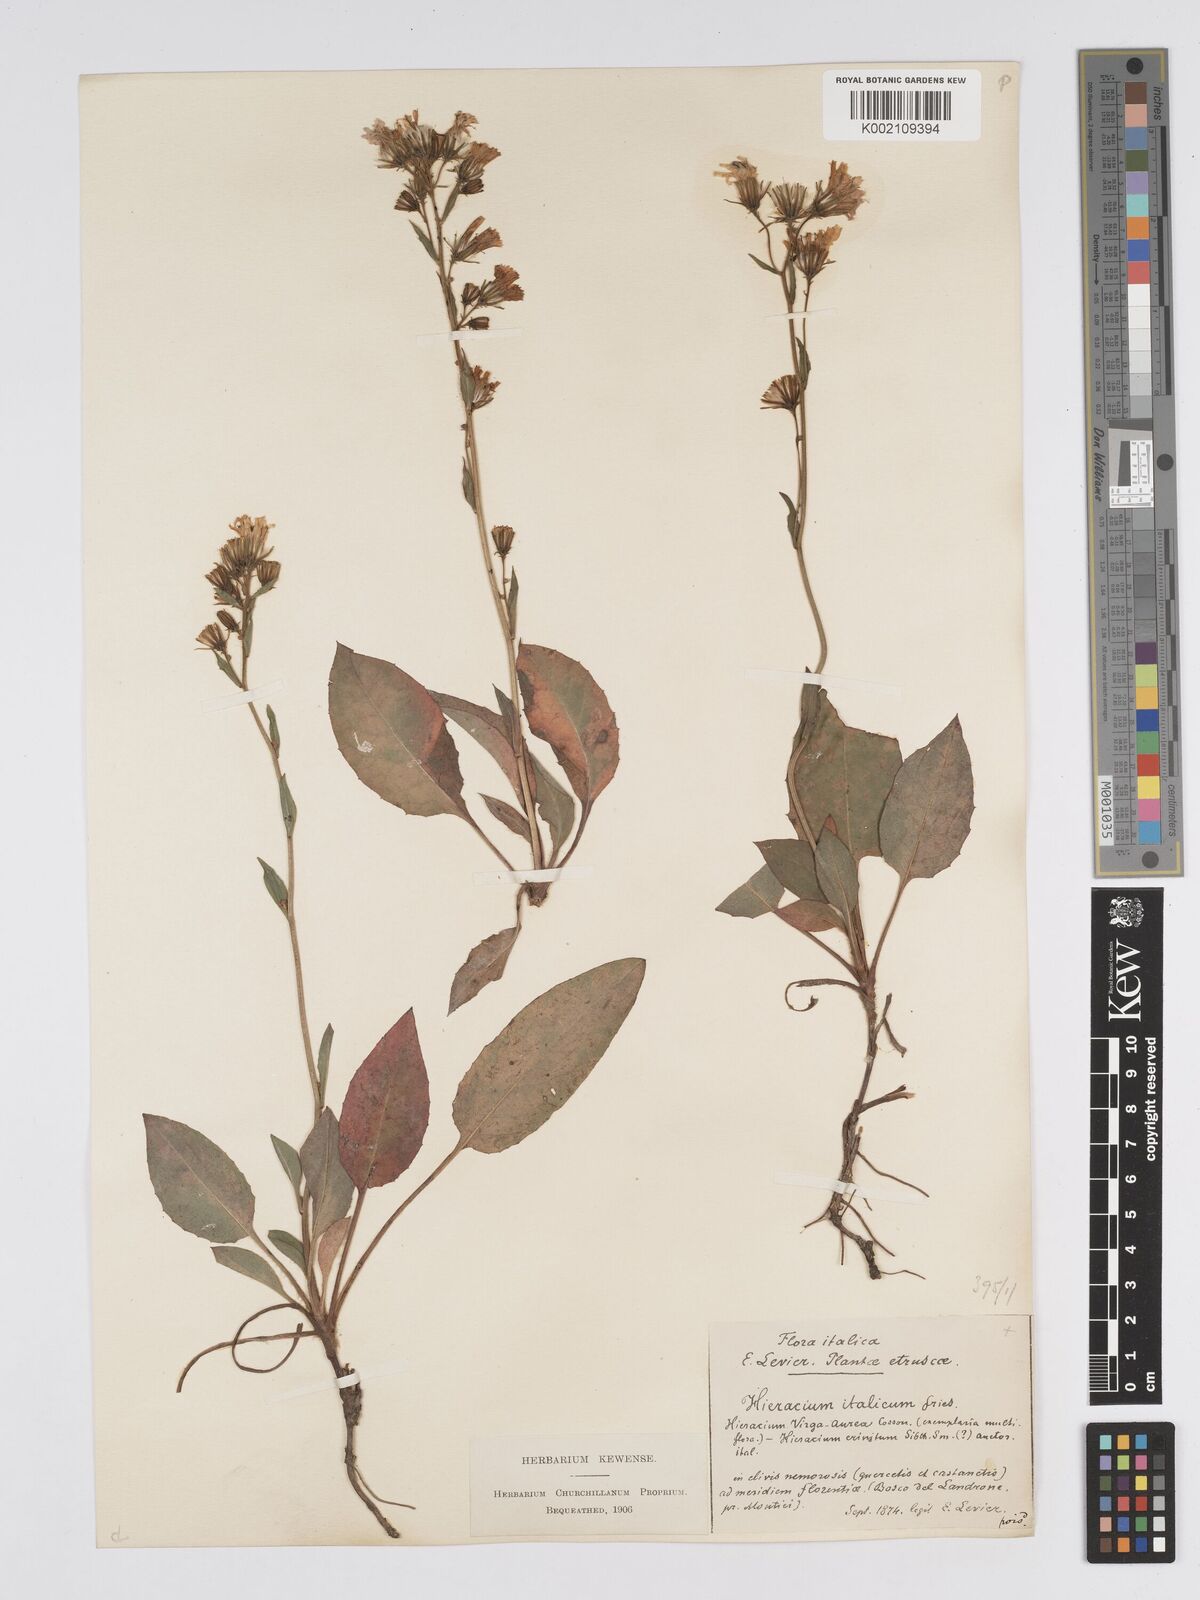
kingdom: Plantae
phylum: Tracheophyta
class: Magnoliopsida
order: Asterales
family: Asteraceae
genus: Hieracium
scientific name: Hieracium racemosum
